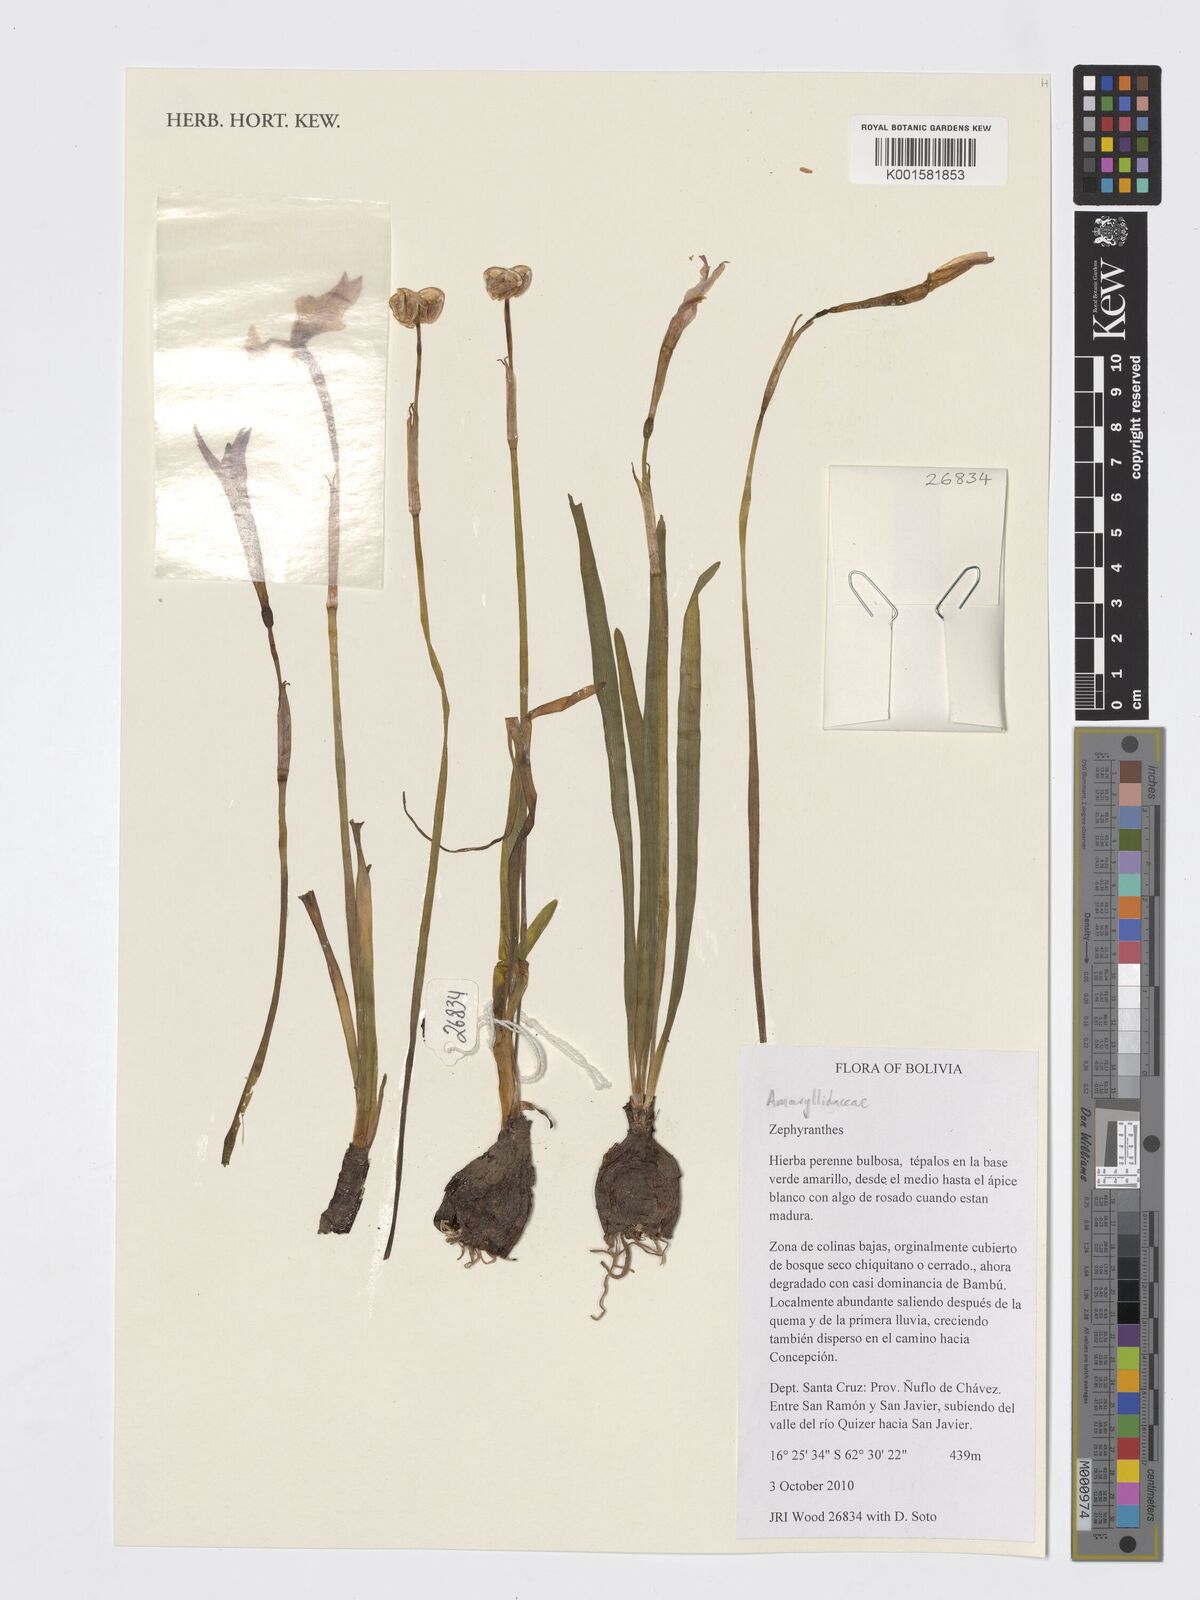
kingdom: Plantae
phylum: Tracheophyta
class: Liliopsida
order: Asparagales
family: Amaryllidaceae
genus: Zephyranthes
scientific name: Zephyranthes
